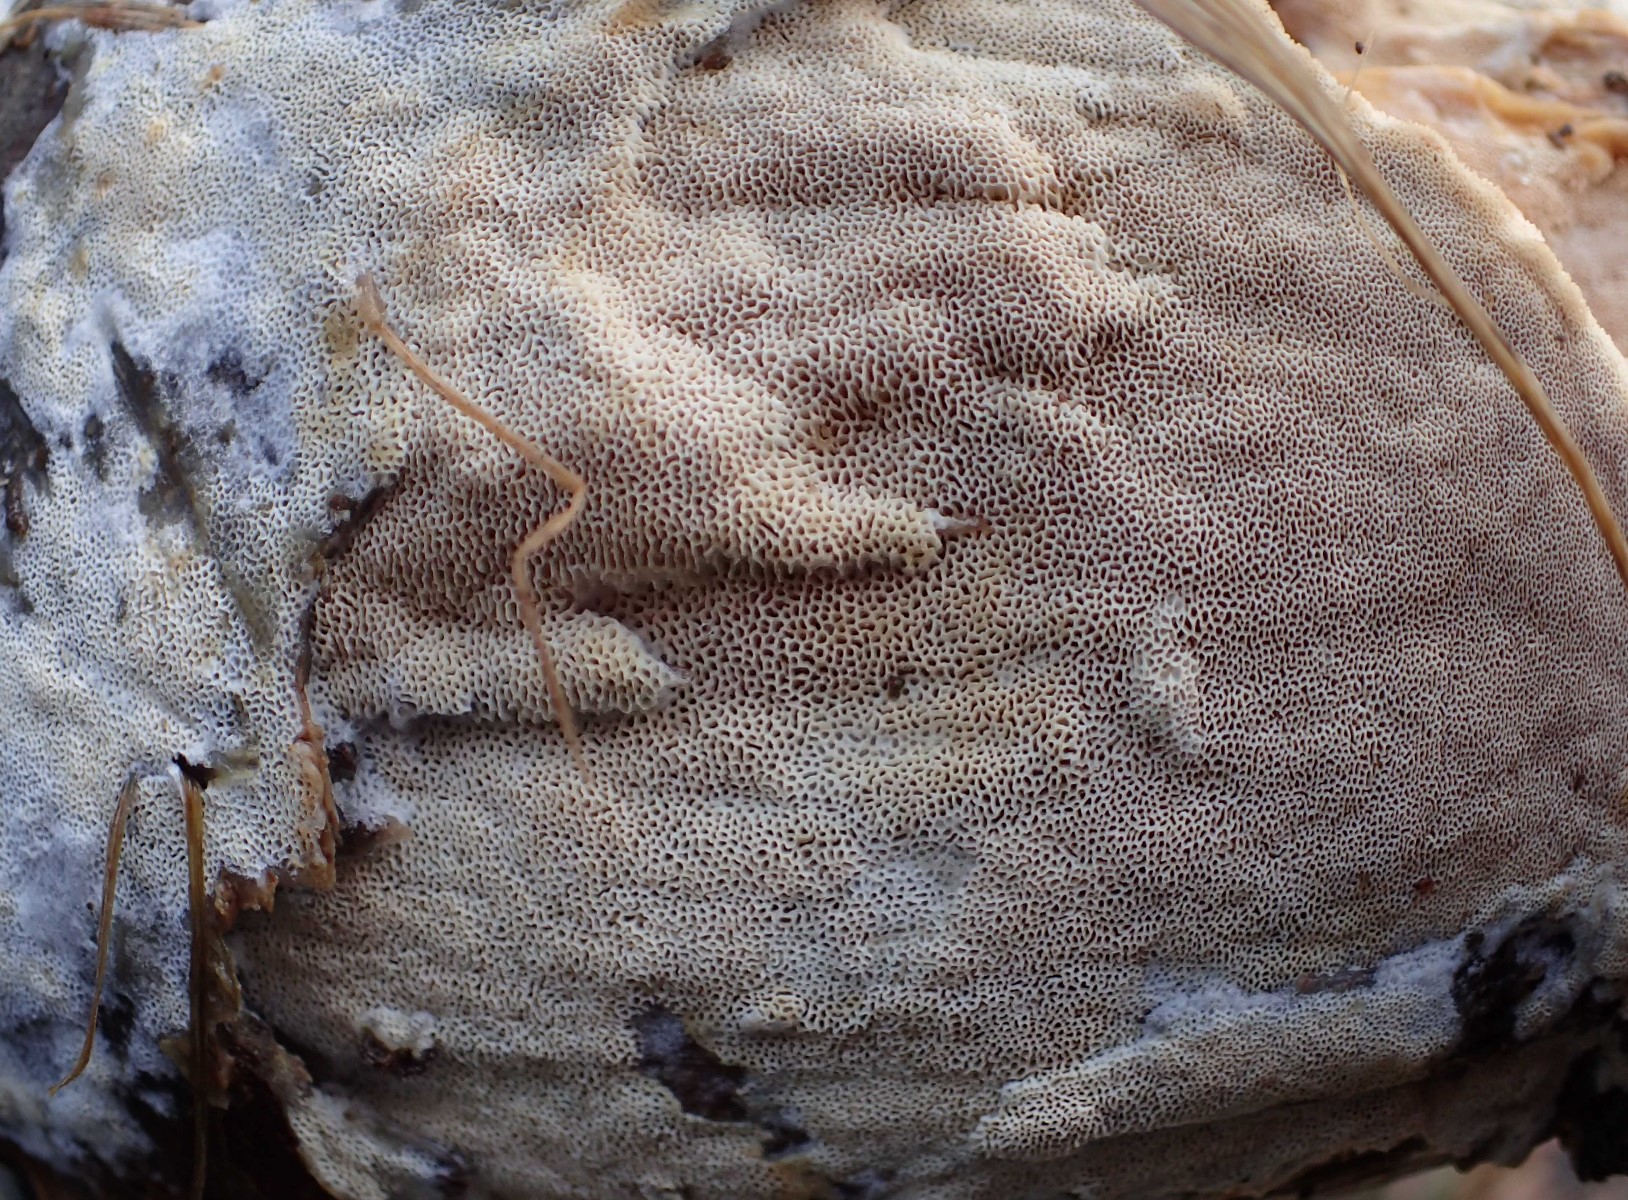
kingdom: Fungi
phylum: Basidiomycota
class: Agaricomycetes
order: Polyporales
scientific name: Polyporales
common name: poresvampordenen
